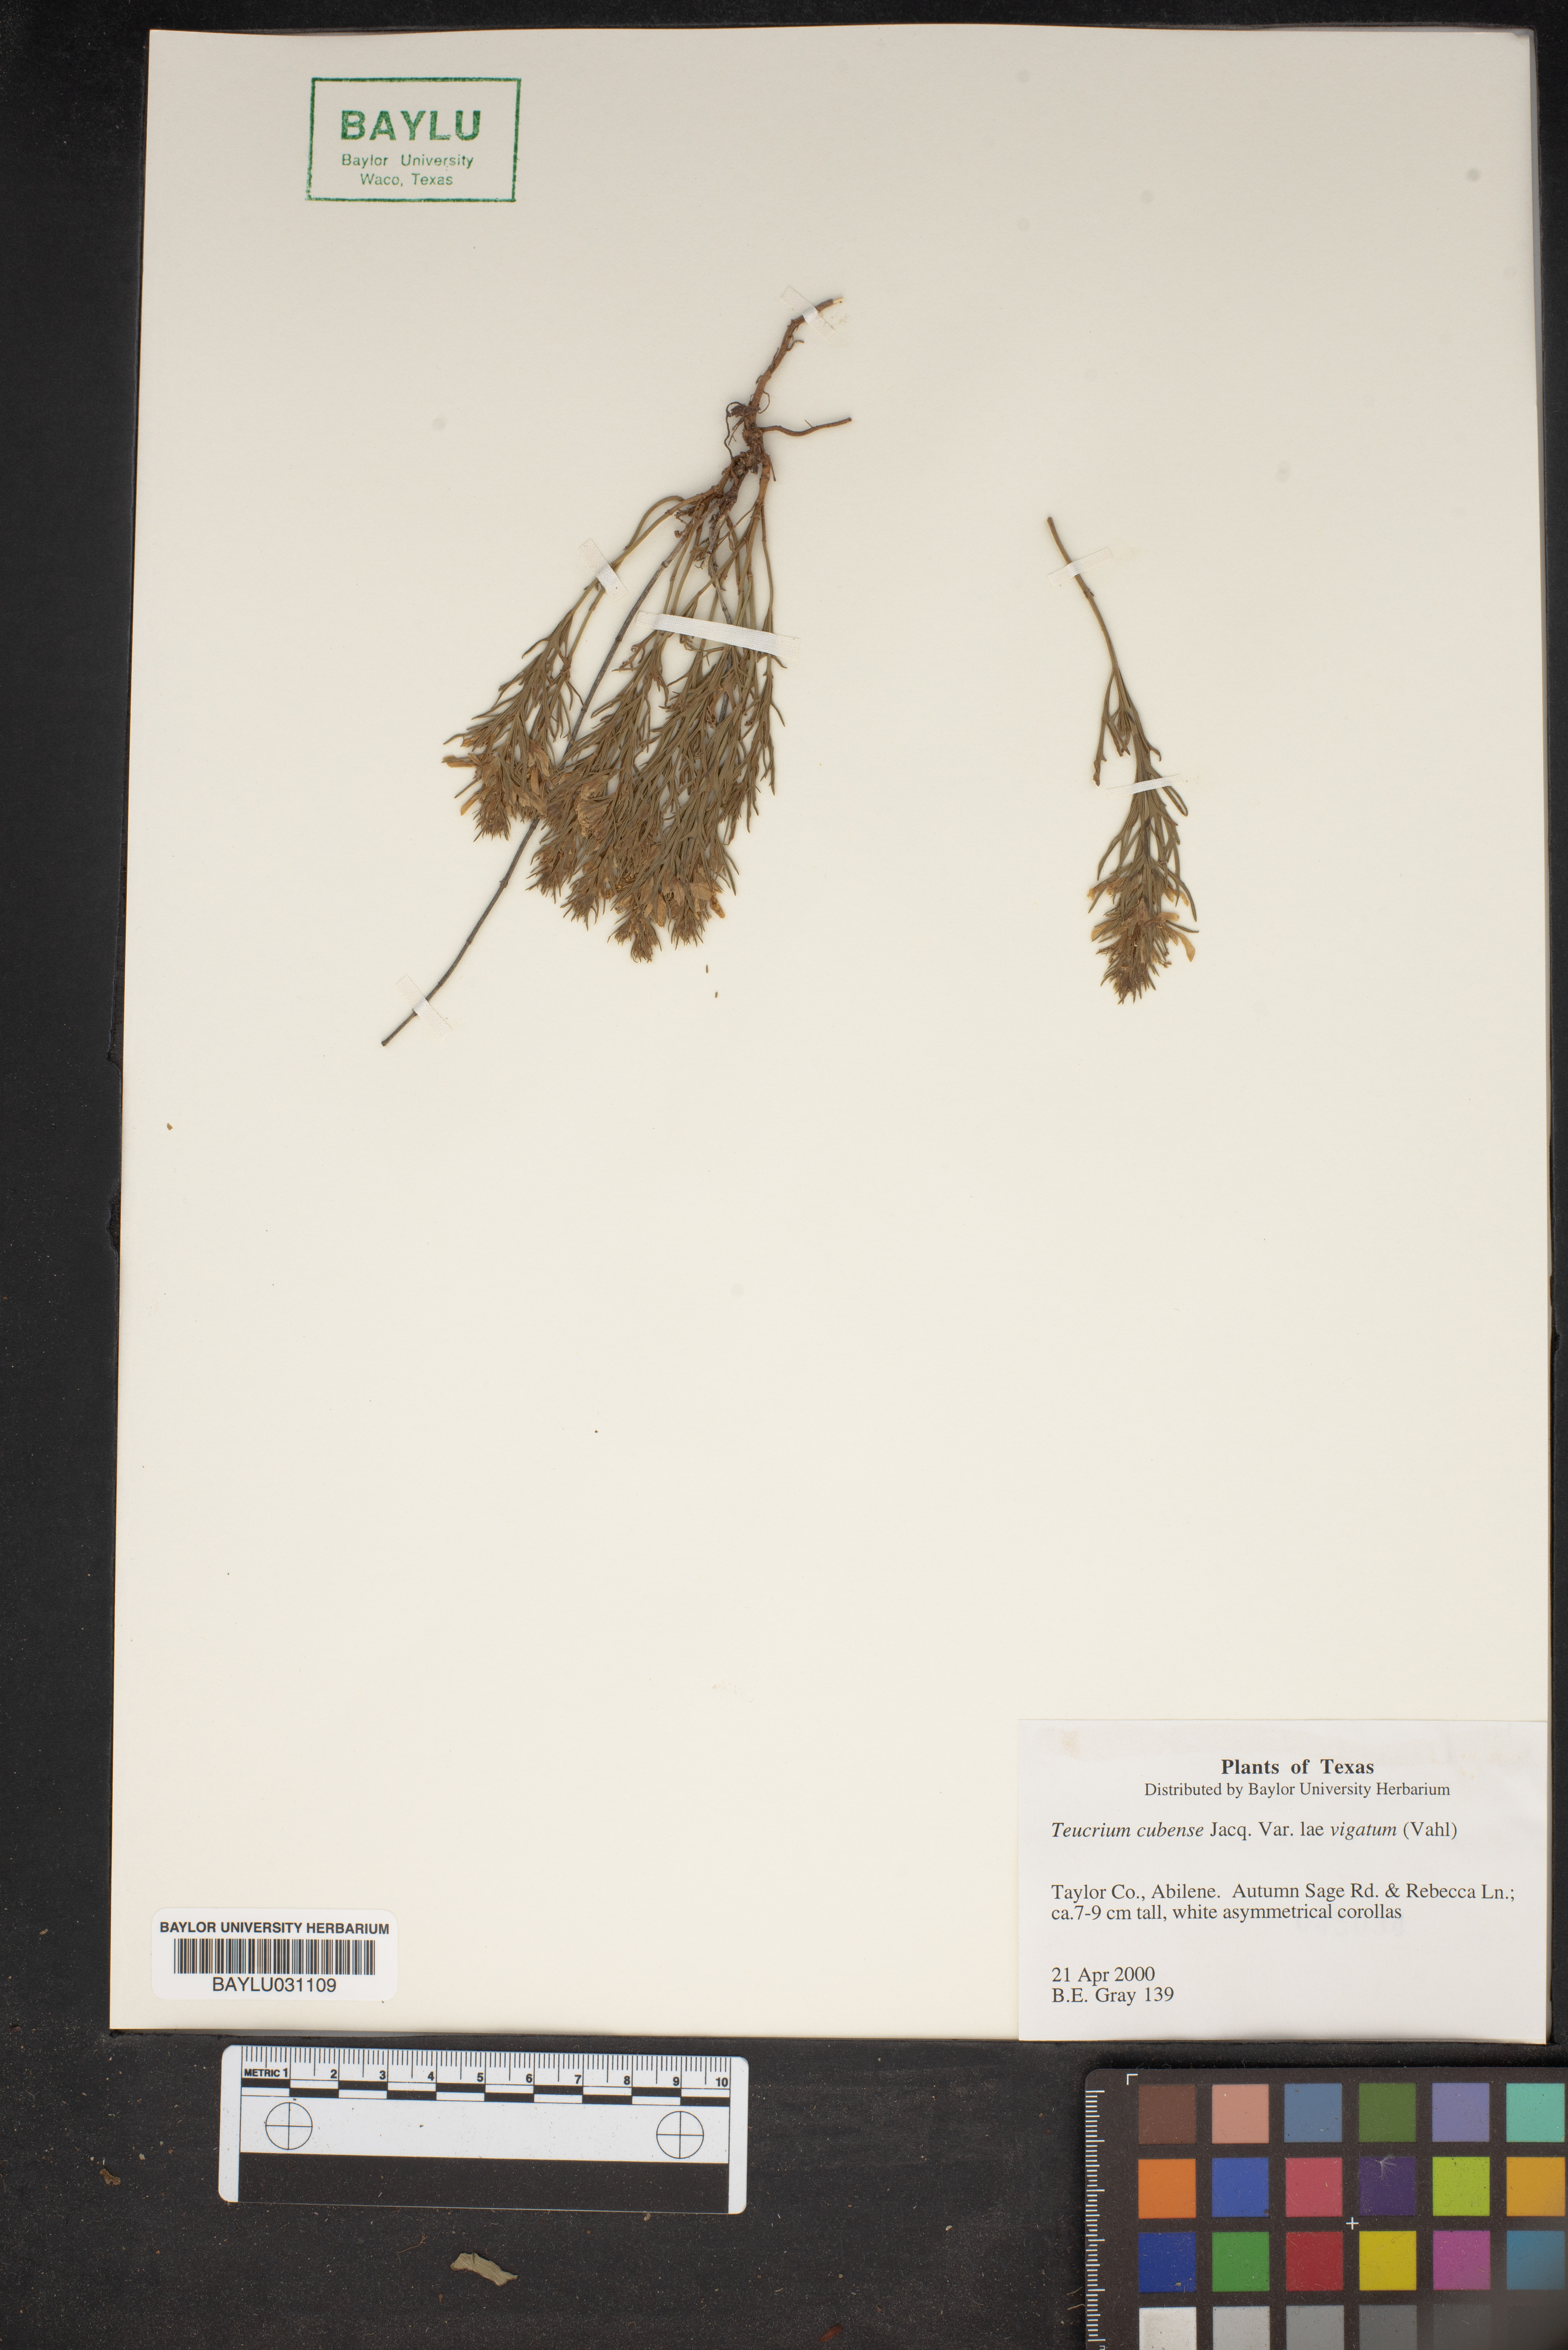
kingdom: Plantae
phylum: Tracheophyta
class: Magnoliopsida
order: Lamiales
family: Lamiaceae
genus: Teucrium
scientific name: Teucrium cubense
